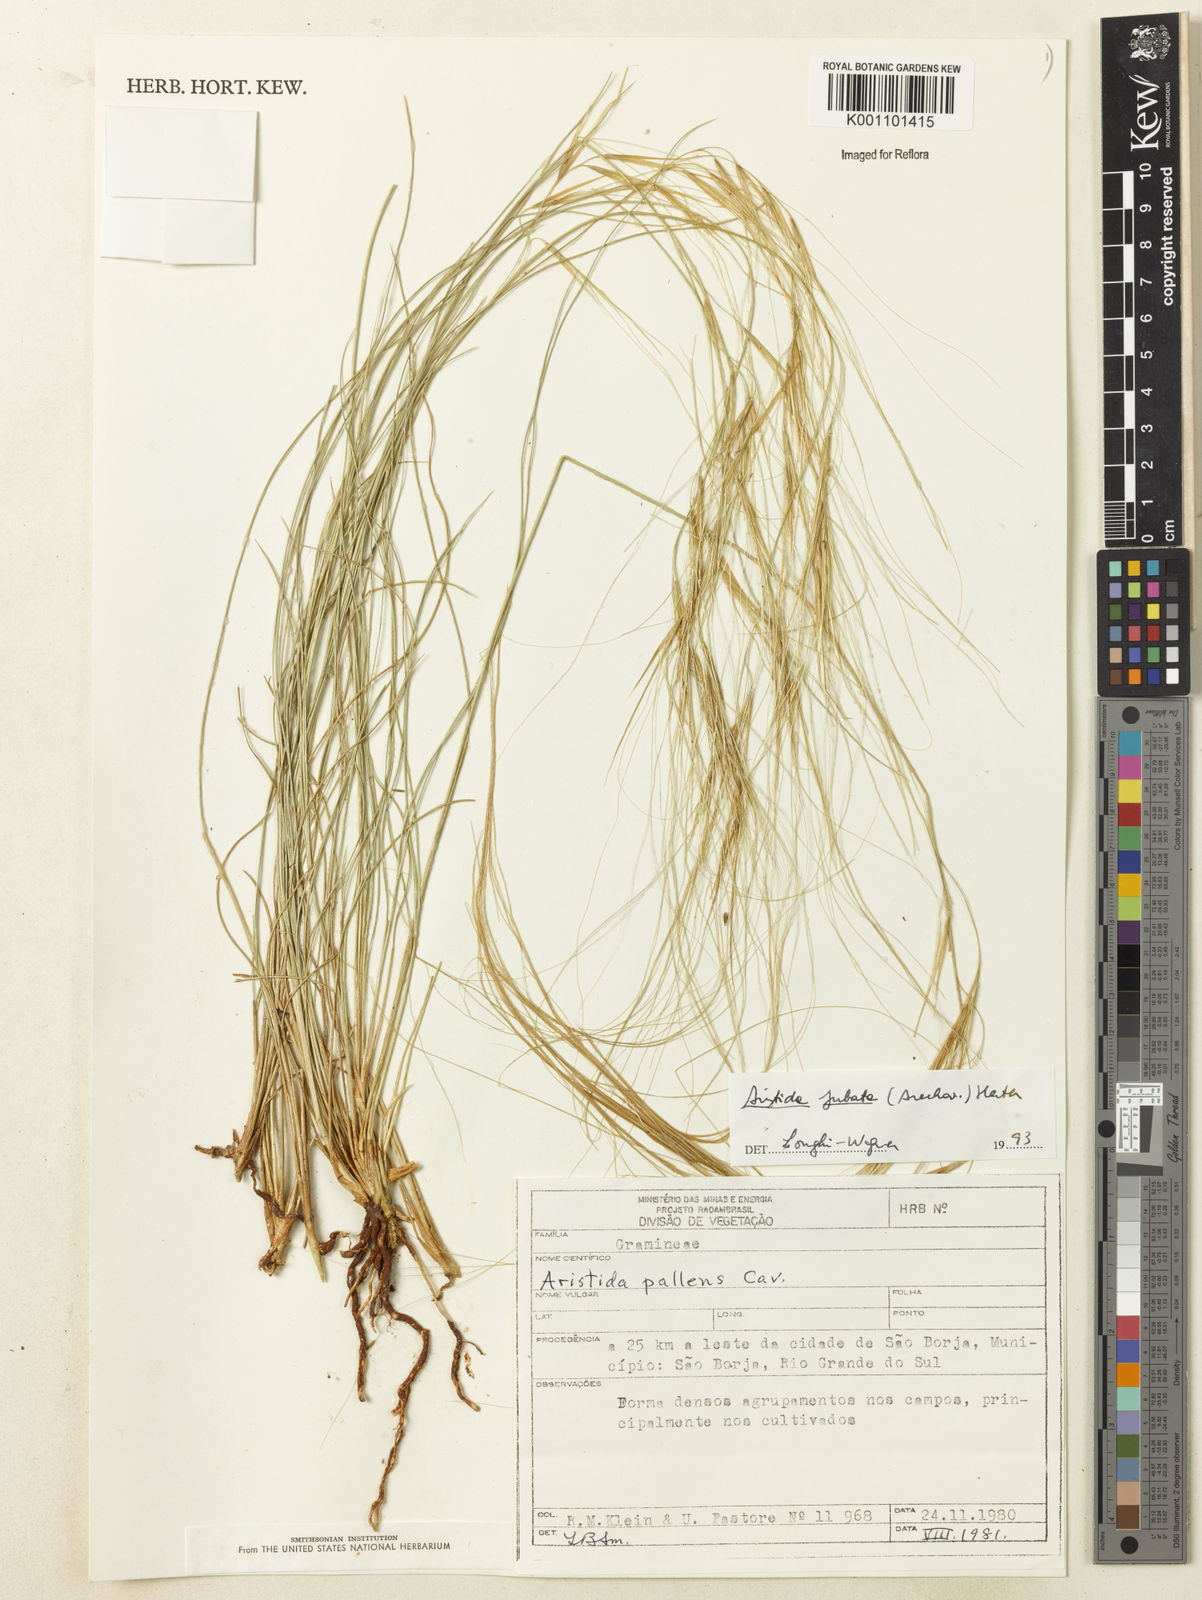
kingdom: Plantae
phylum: Tracheophyta
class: Liliopsida
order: Poales
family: Poaceae
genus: Aristida
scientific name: Aristida jubata
